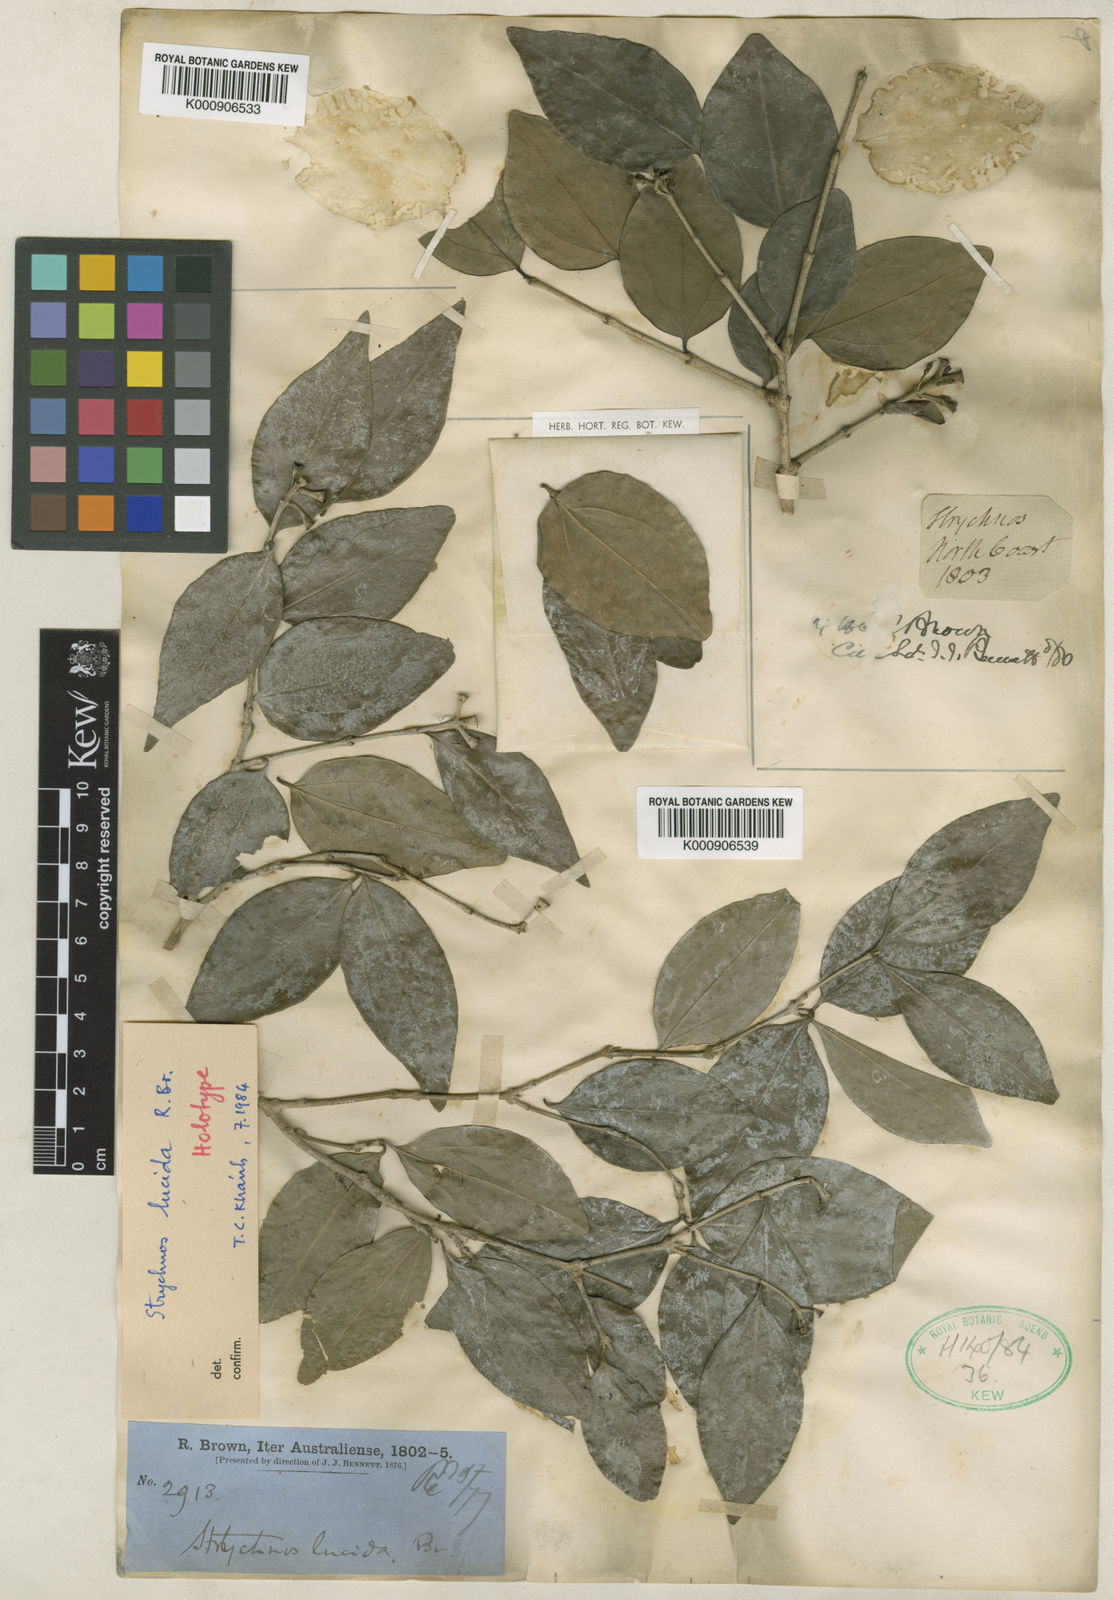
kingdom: Plantae
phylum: Tracheophyta
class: Magnoliopsida
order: Gentianales
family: Loganiaceae
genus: Strychnos
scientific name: Strychnos lucida
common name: Strychninebush
